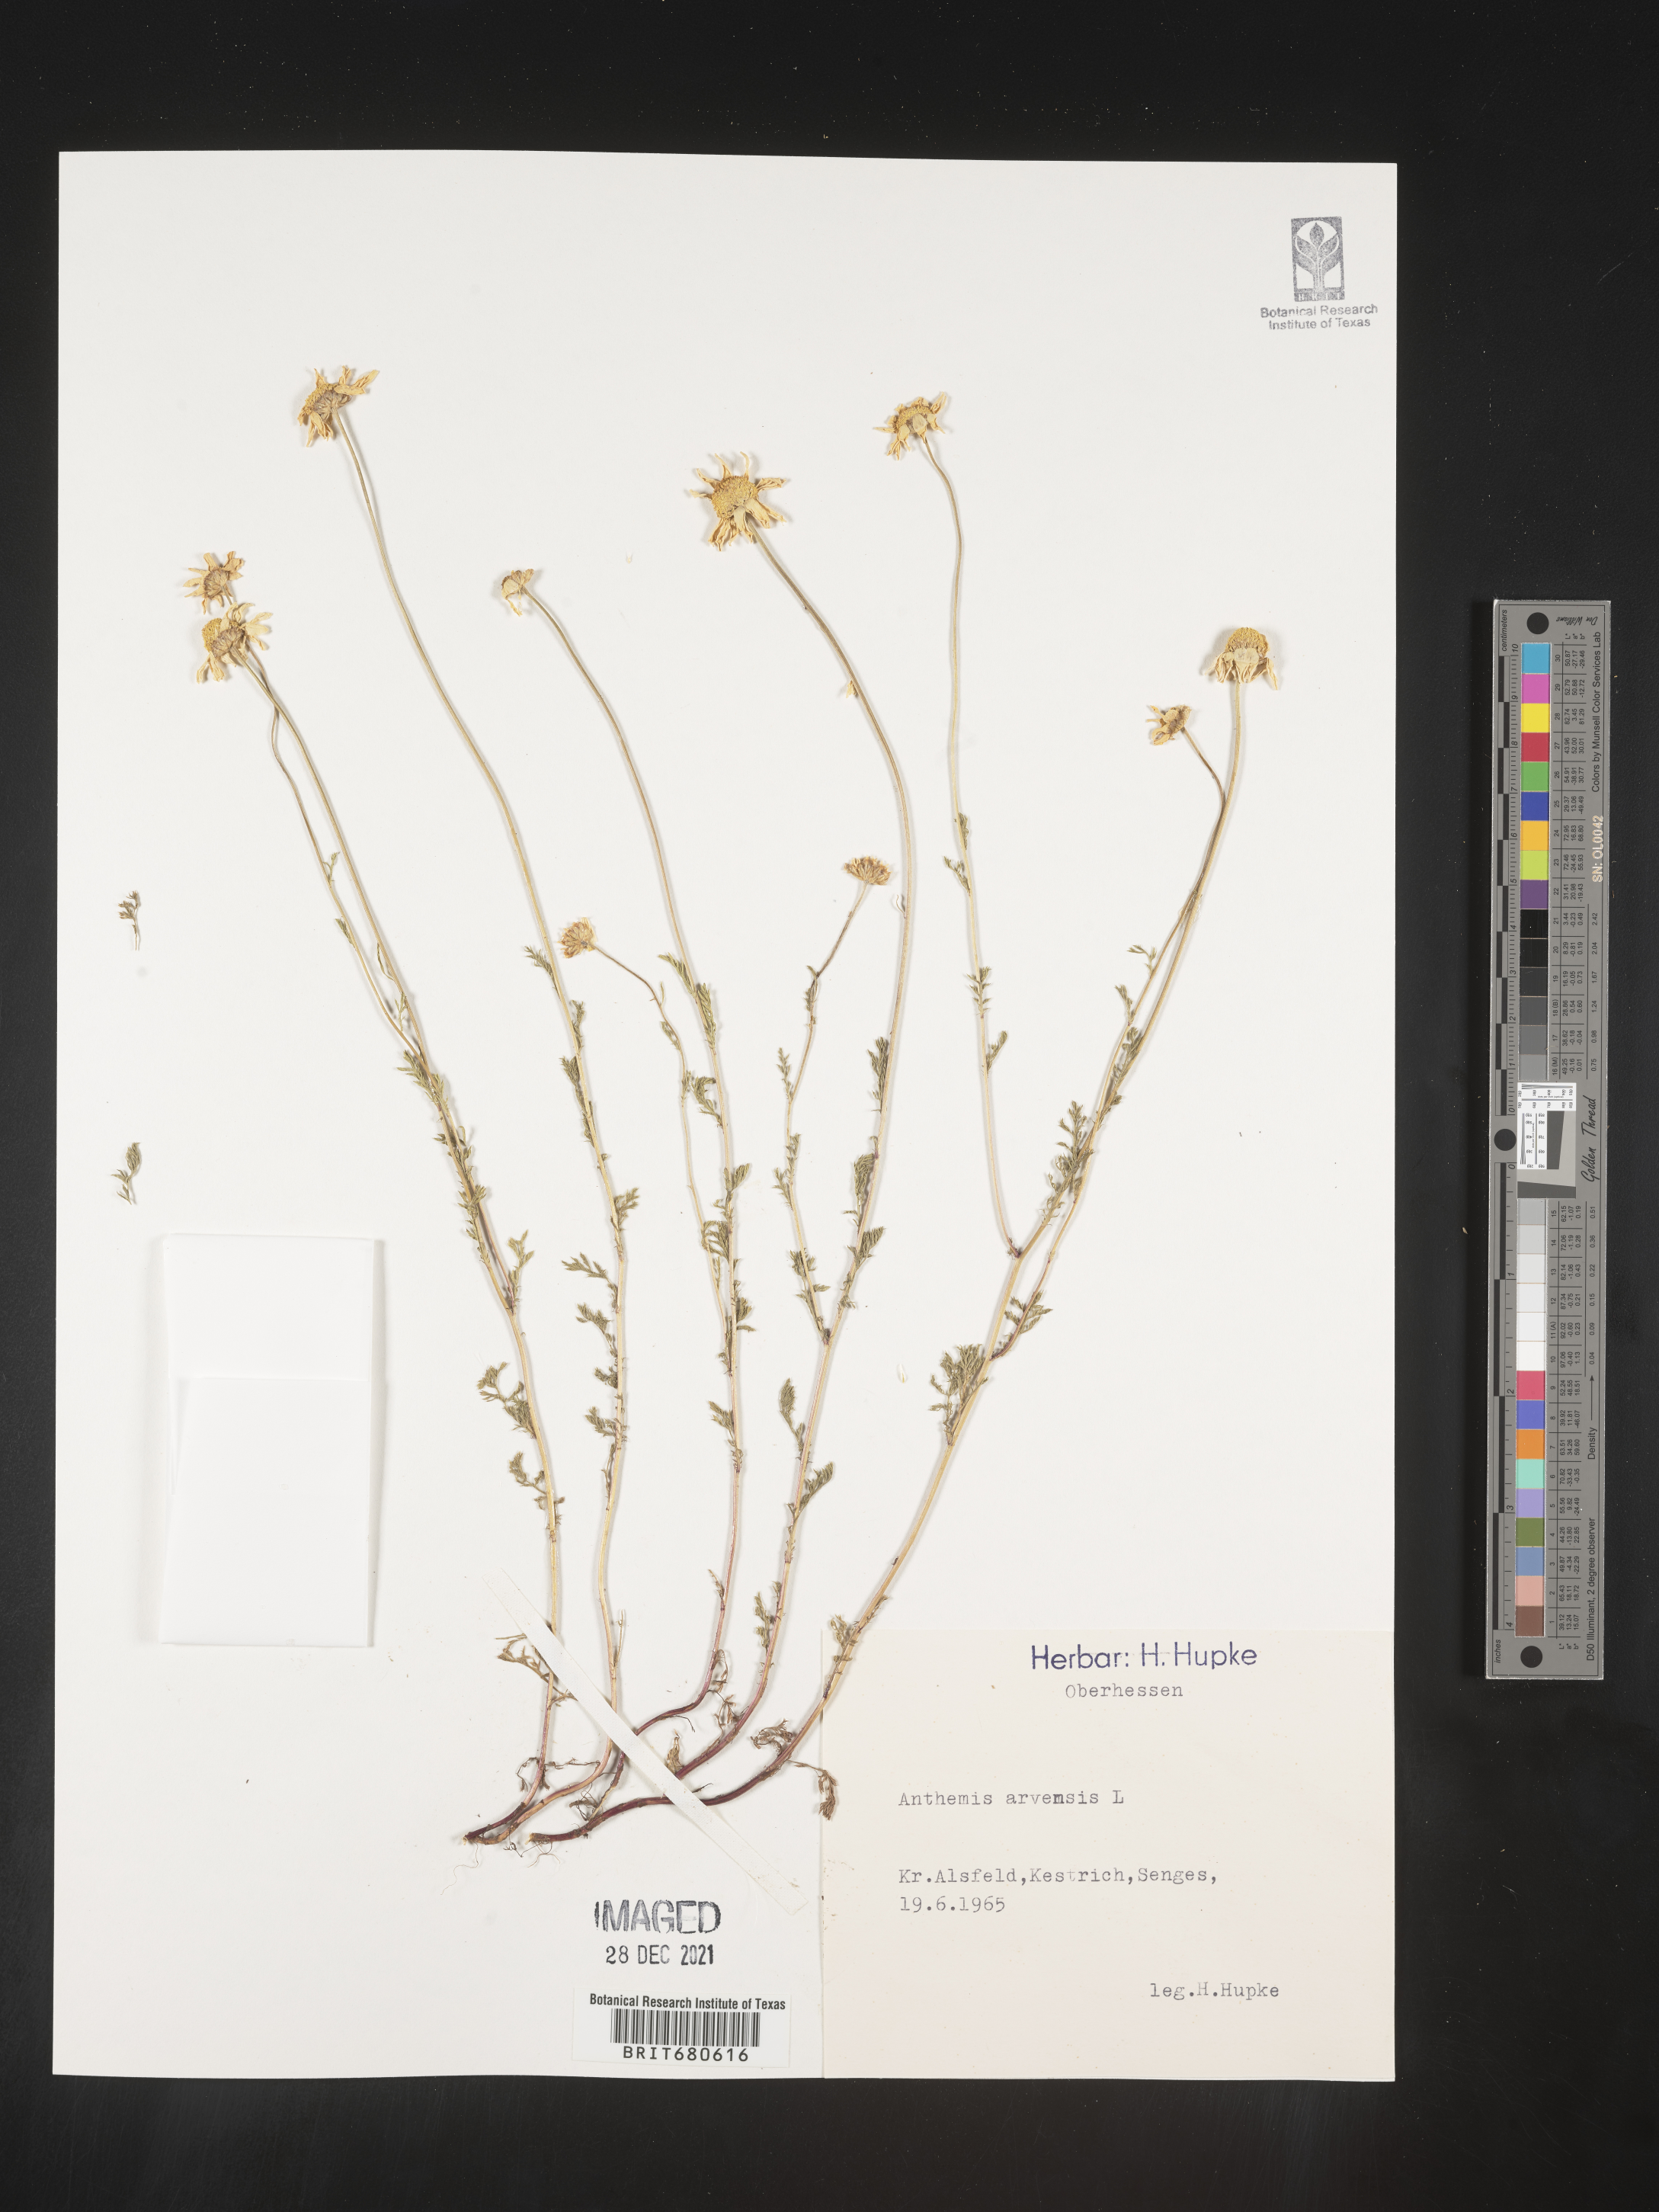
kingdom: Plantae
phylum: Tracheophyta
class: Magnoliopsida
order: Asterales
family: Asteraceae
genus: Anthemis
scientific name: Anthemis
